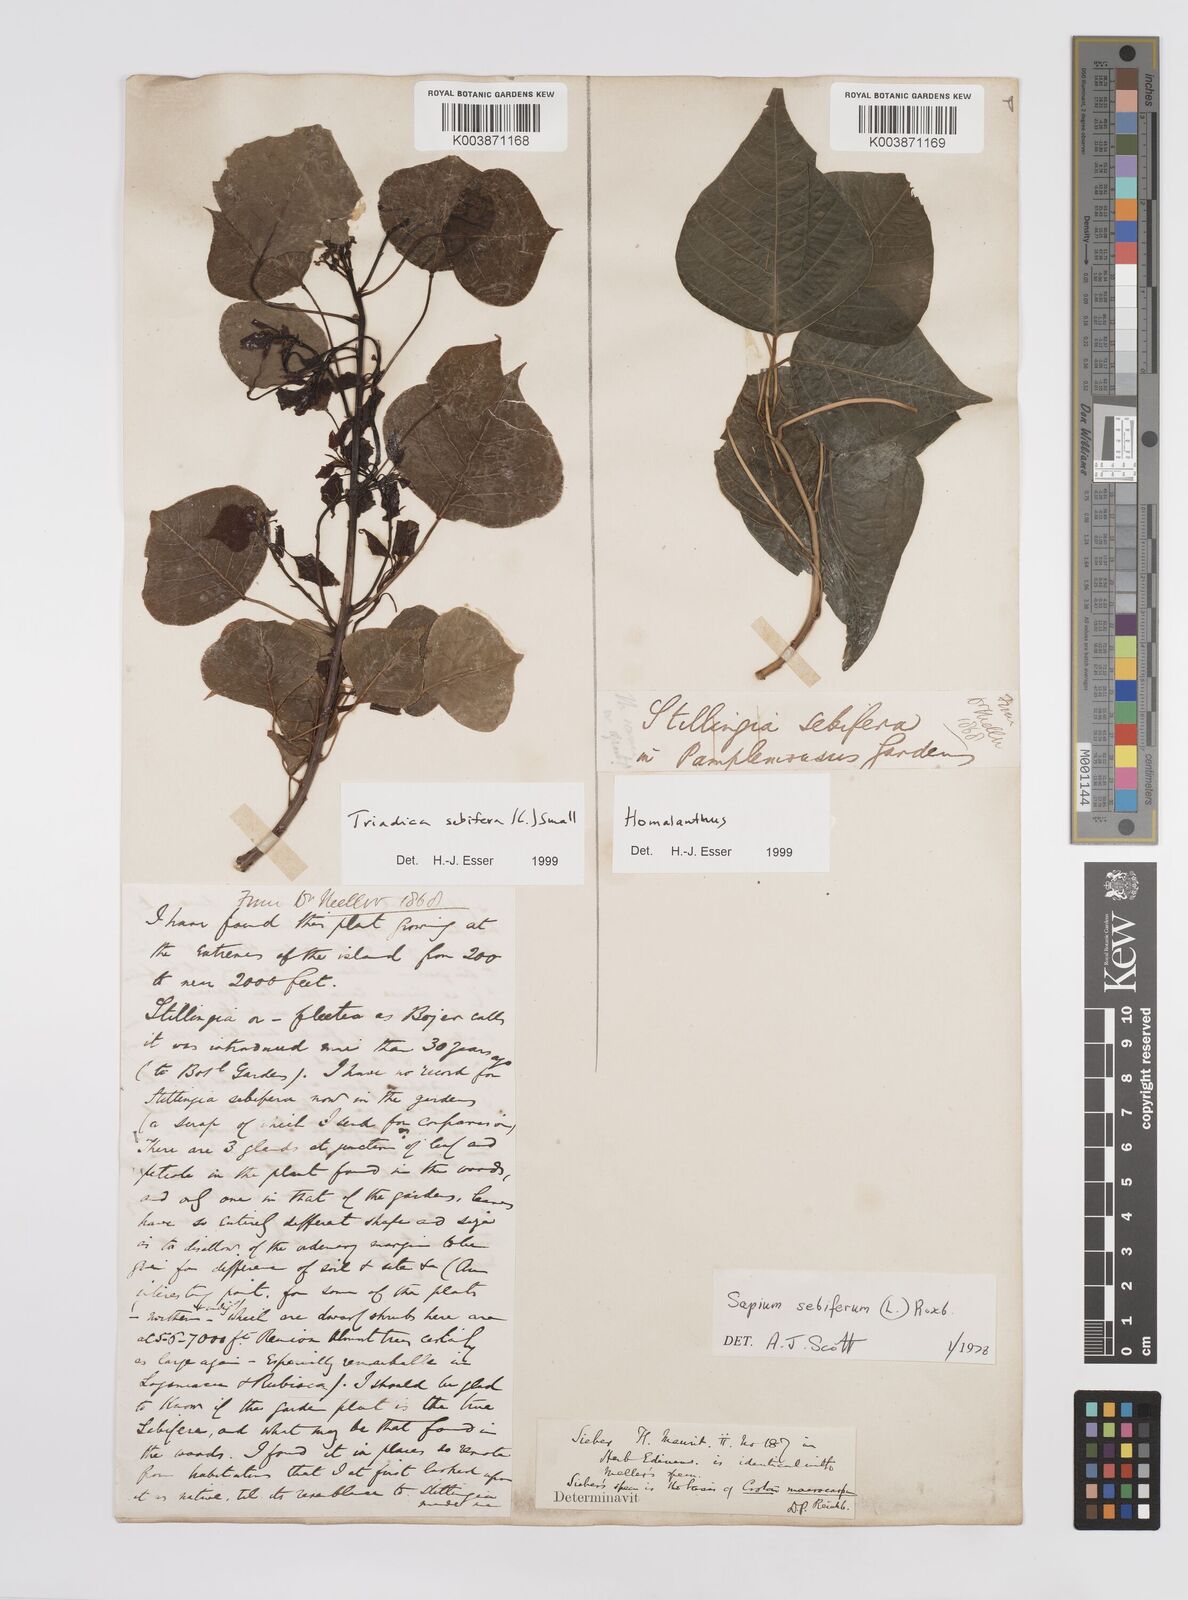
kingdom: Plantae
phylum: Tracheophyta
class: Magnoliopsida
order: Malpighiales
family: Euphorbiaceae
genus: Triadica
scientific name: Triadica sebifera
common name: Chinese tallow
